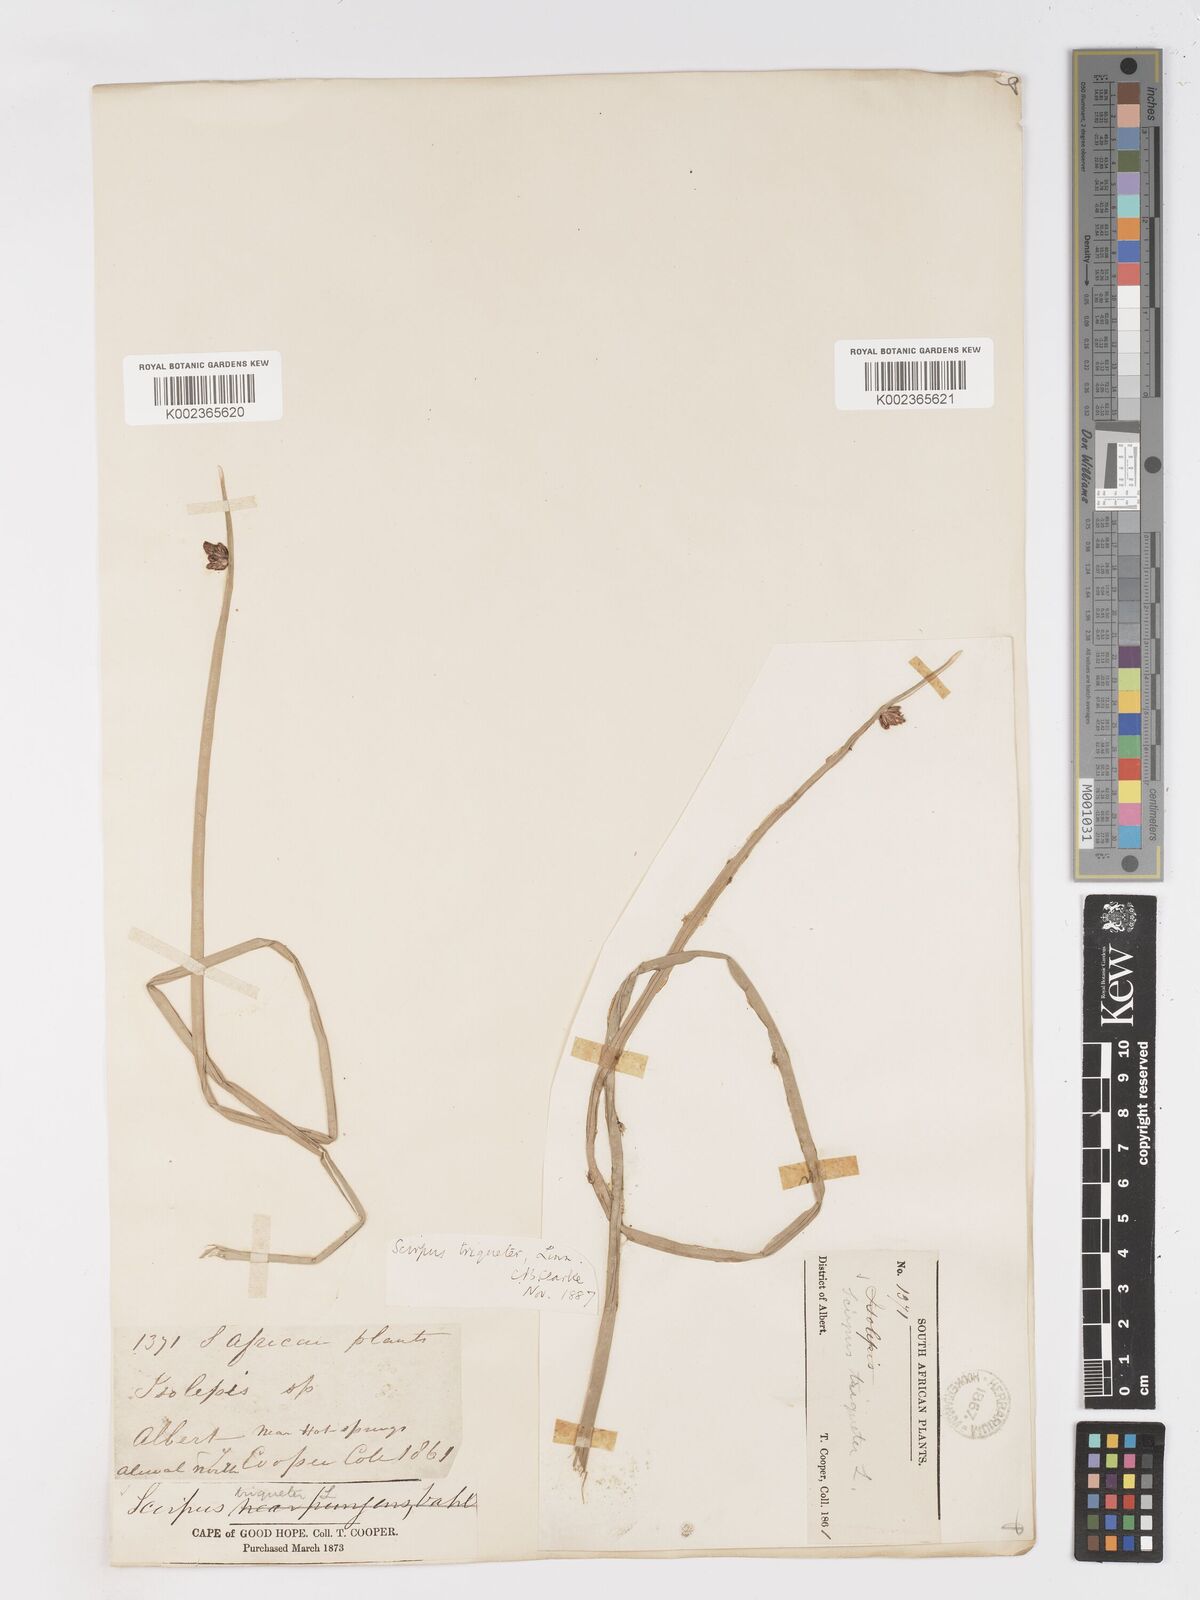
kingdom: Plantae
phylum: Tracheophyta
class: Liliopsida
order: Poales
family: Cyperaceae
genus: Schoenoplectus
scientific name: Schoenoplectus triqueter
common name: Triangular club-rush
